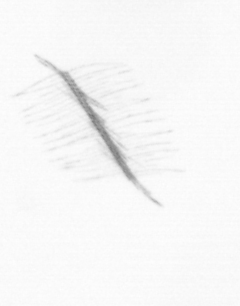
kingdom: Chromista
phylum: Ochrophyta
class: Bacillariophyceae
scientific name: Bacillariophyceae
